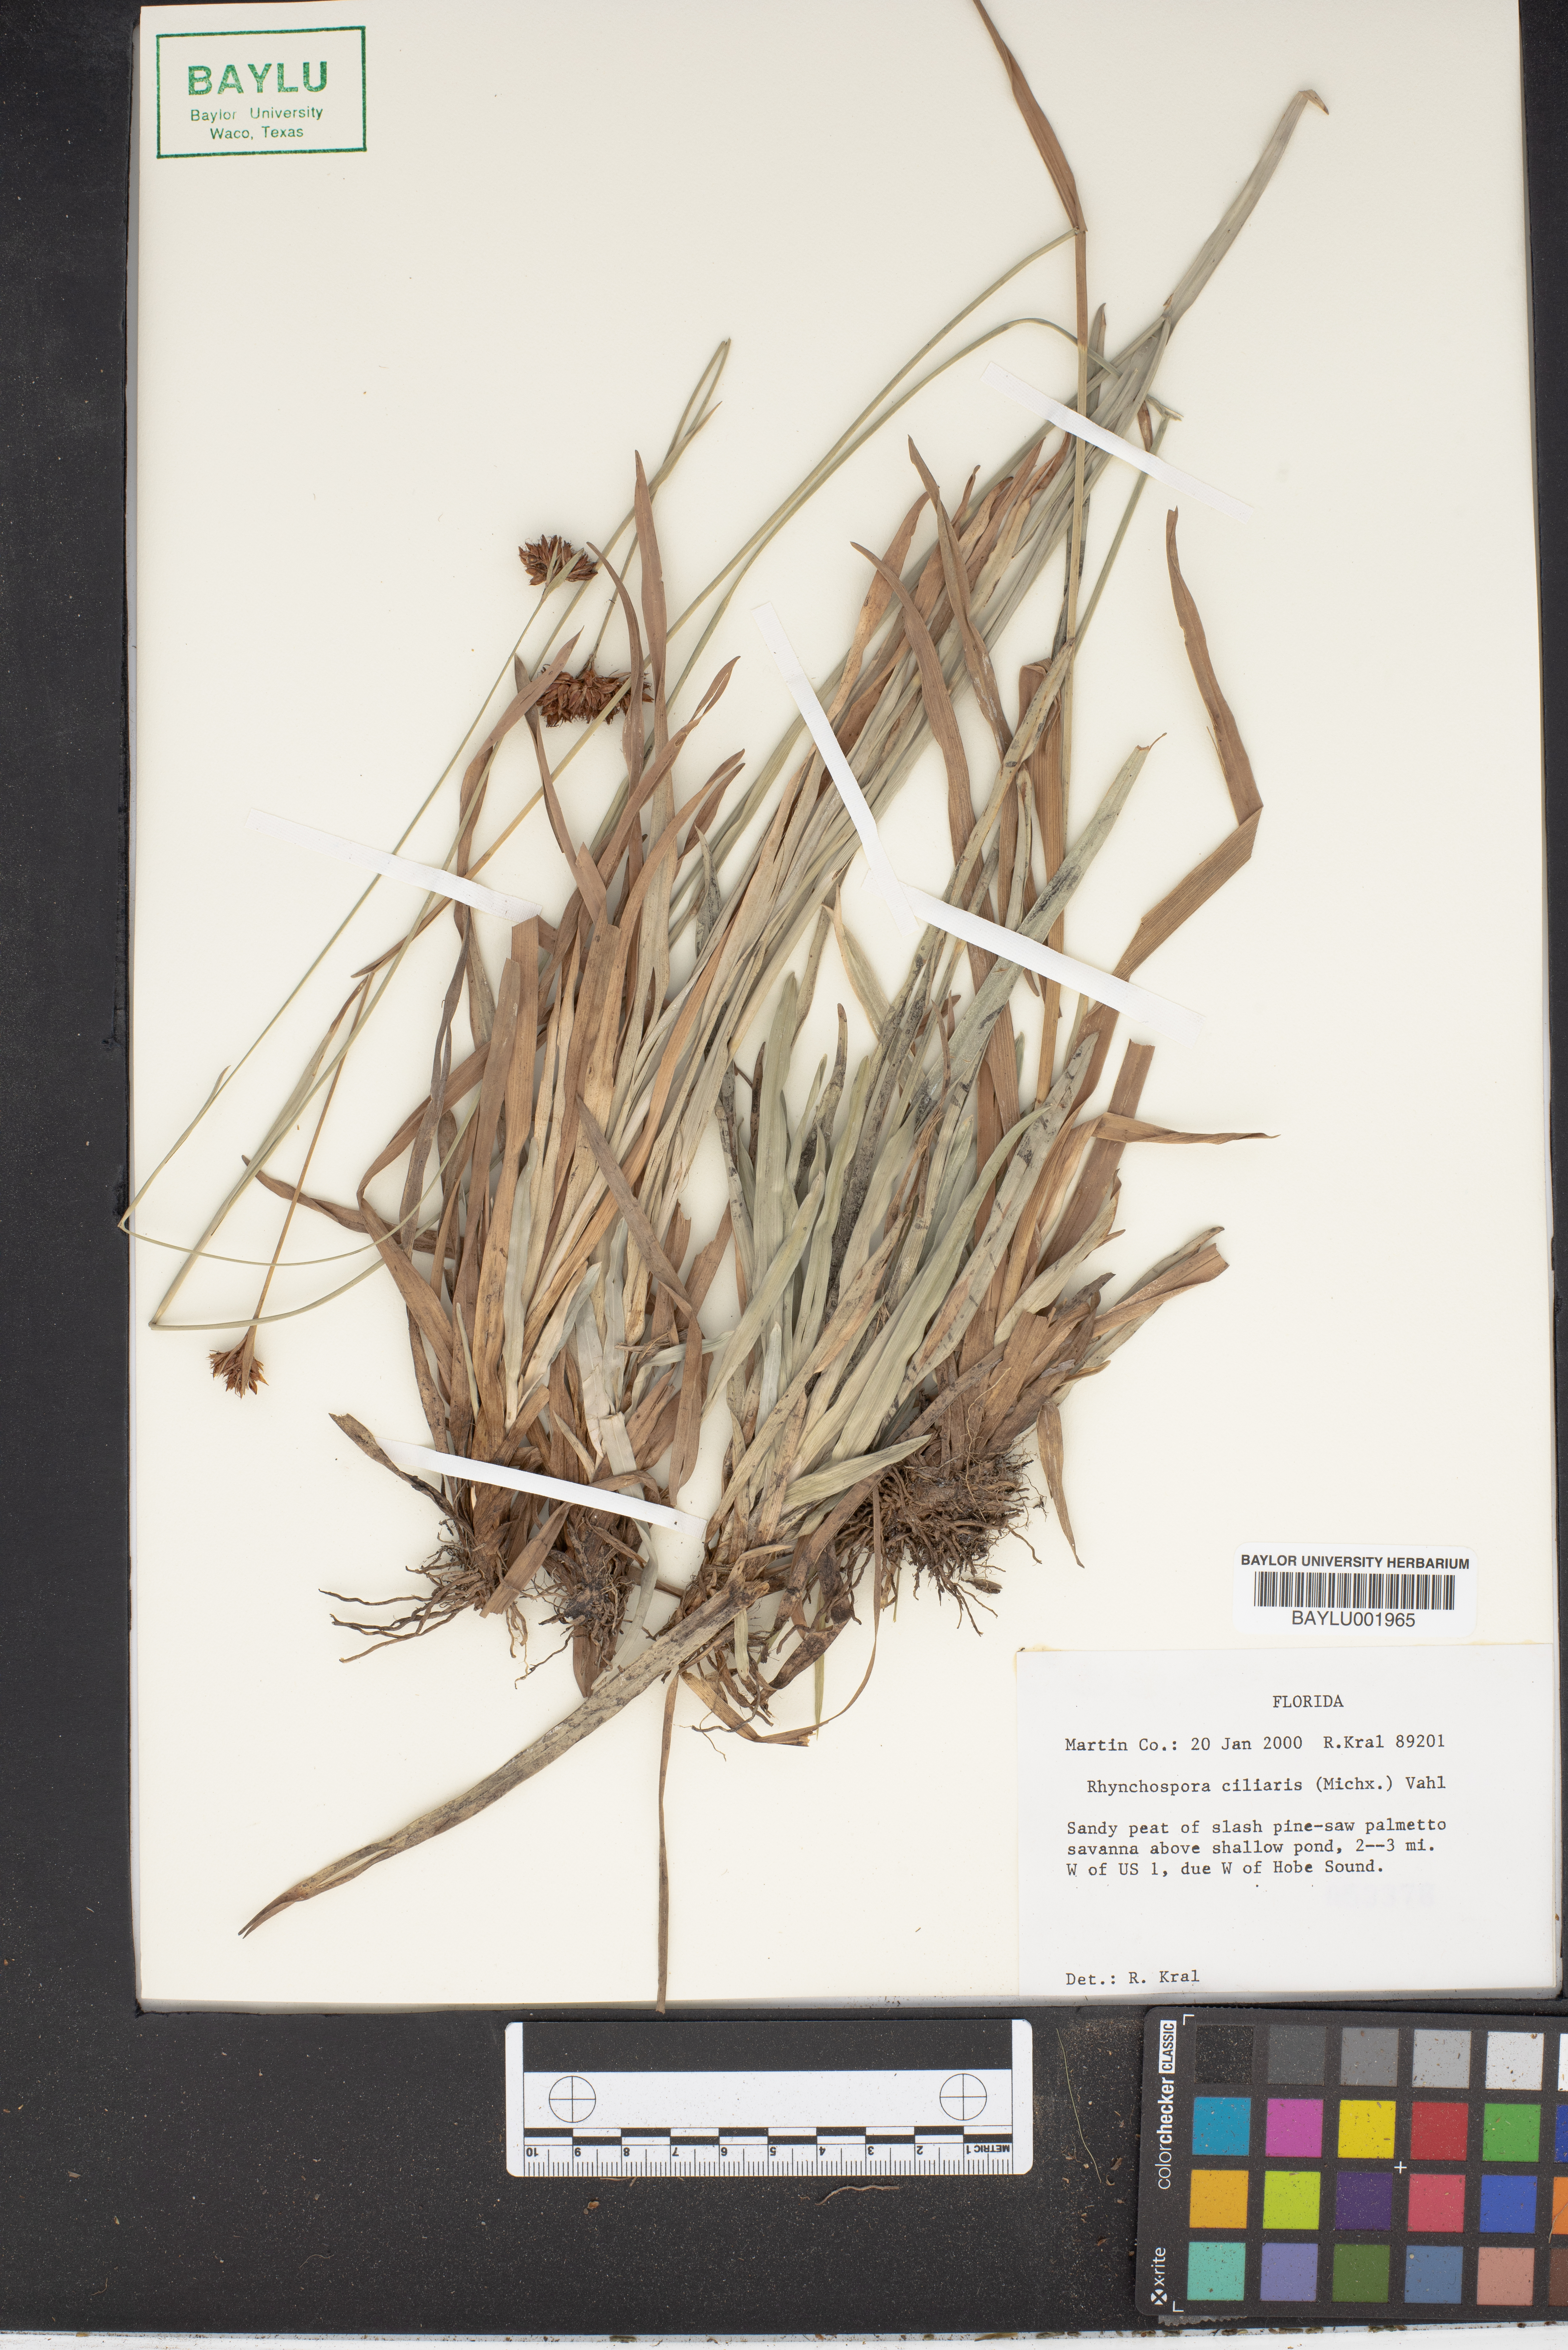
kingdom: Plantae
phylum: Tracheophyta
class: Liliopsida
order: Poales
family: Cyperaceae
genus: Rhynchospora
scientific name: Rhynchospora ciliaris
